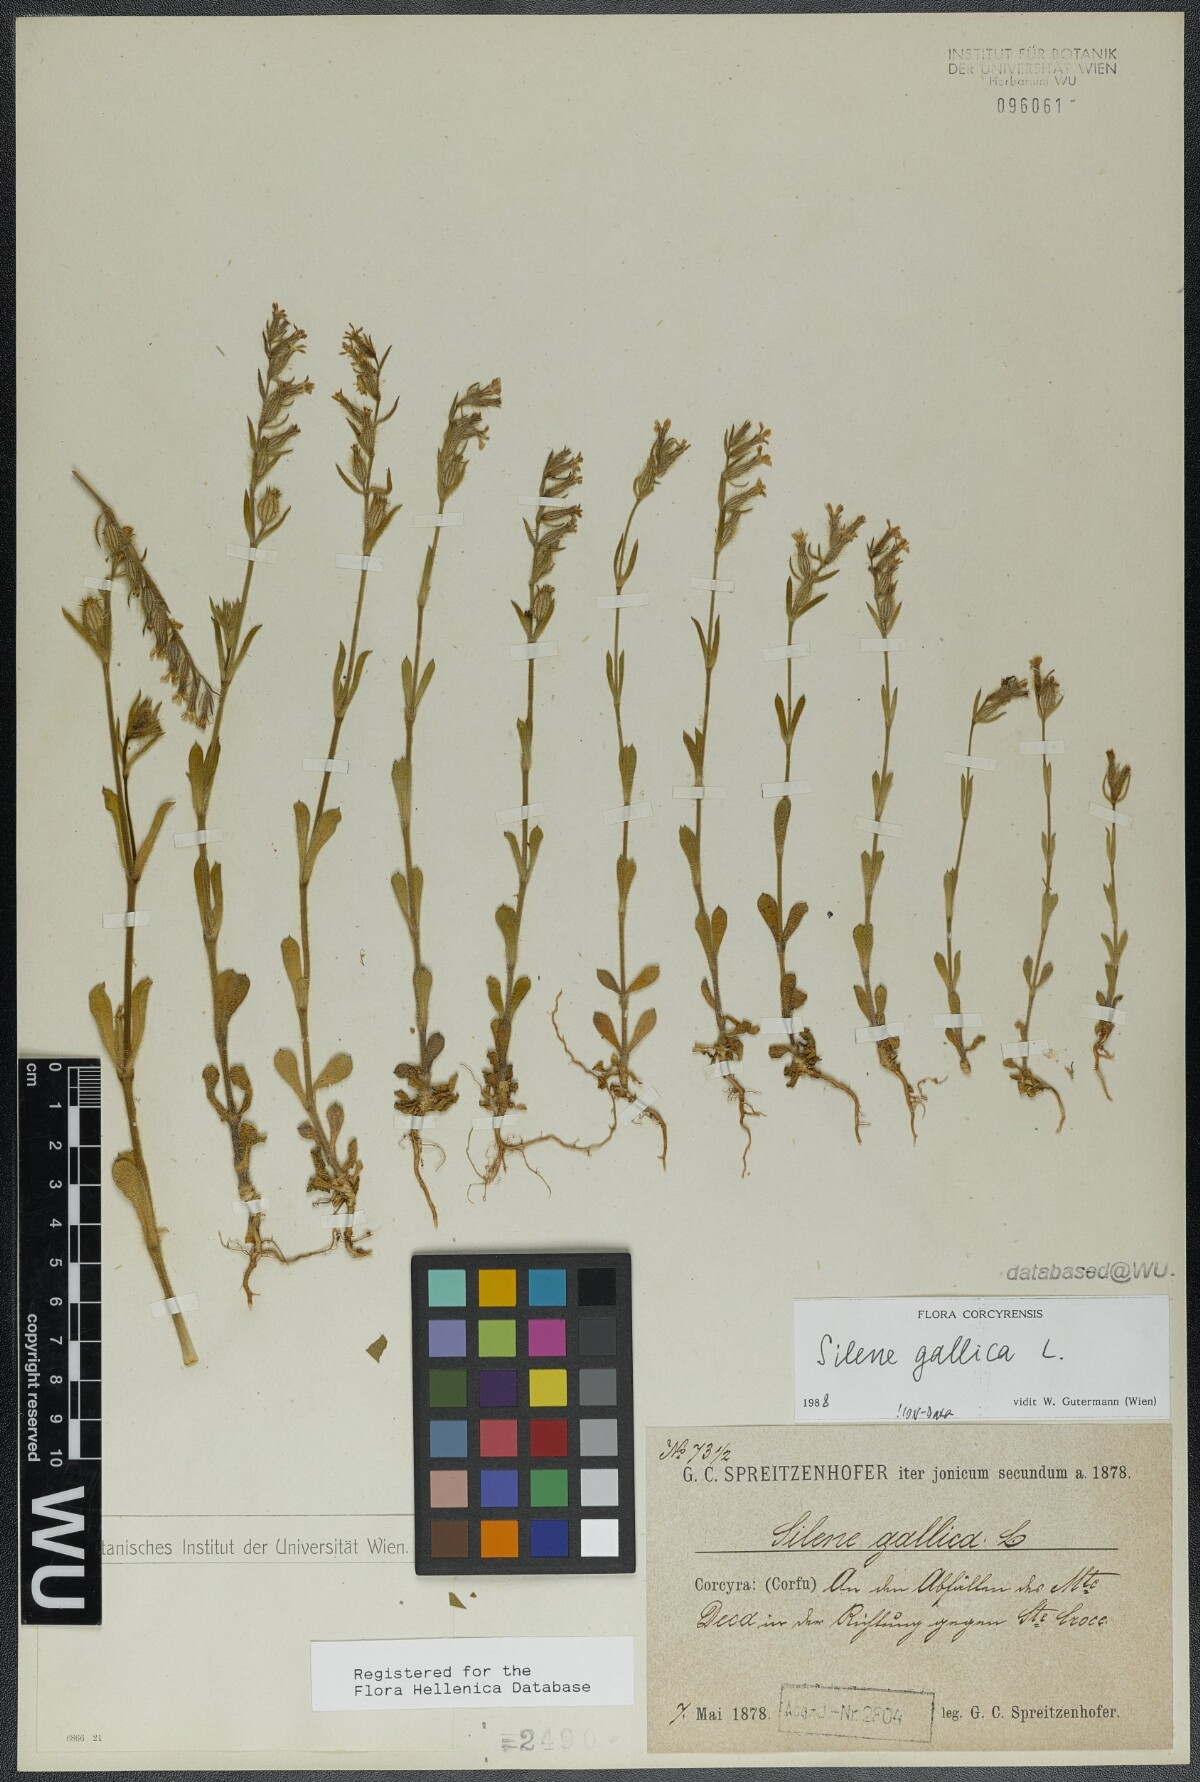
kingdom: Plantae
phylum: Tracheophyta
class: Magnoliopsida
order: Caryophyllales
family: Caryophyllaceae
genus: Silene
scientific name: Silene gallica
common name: Small-flowered catchfly
